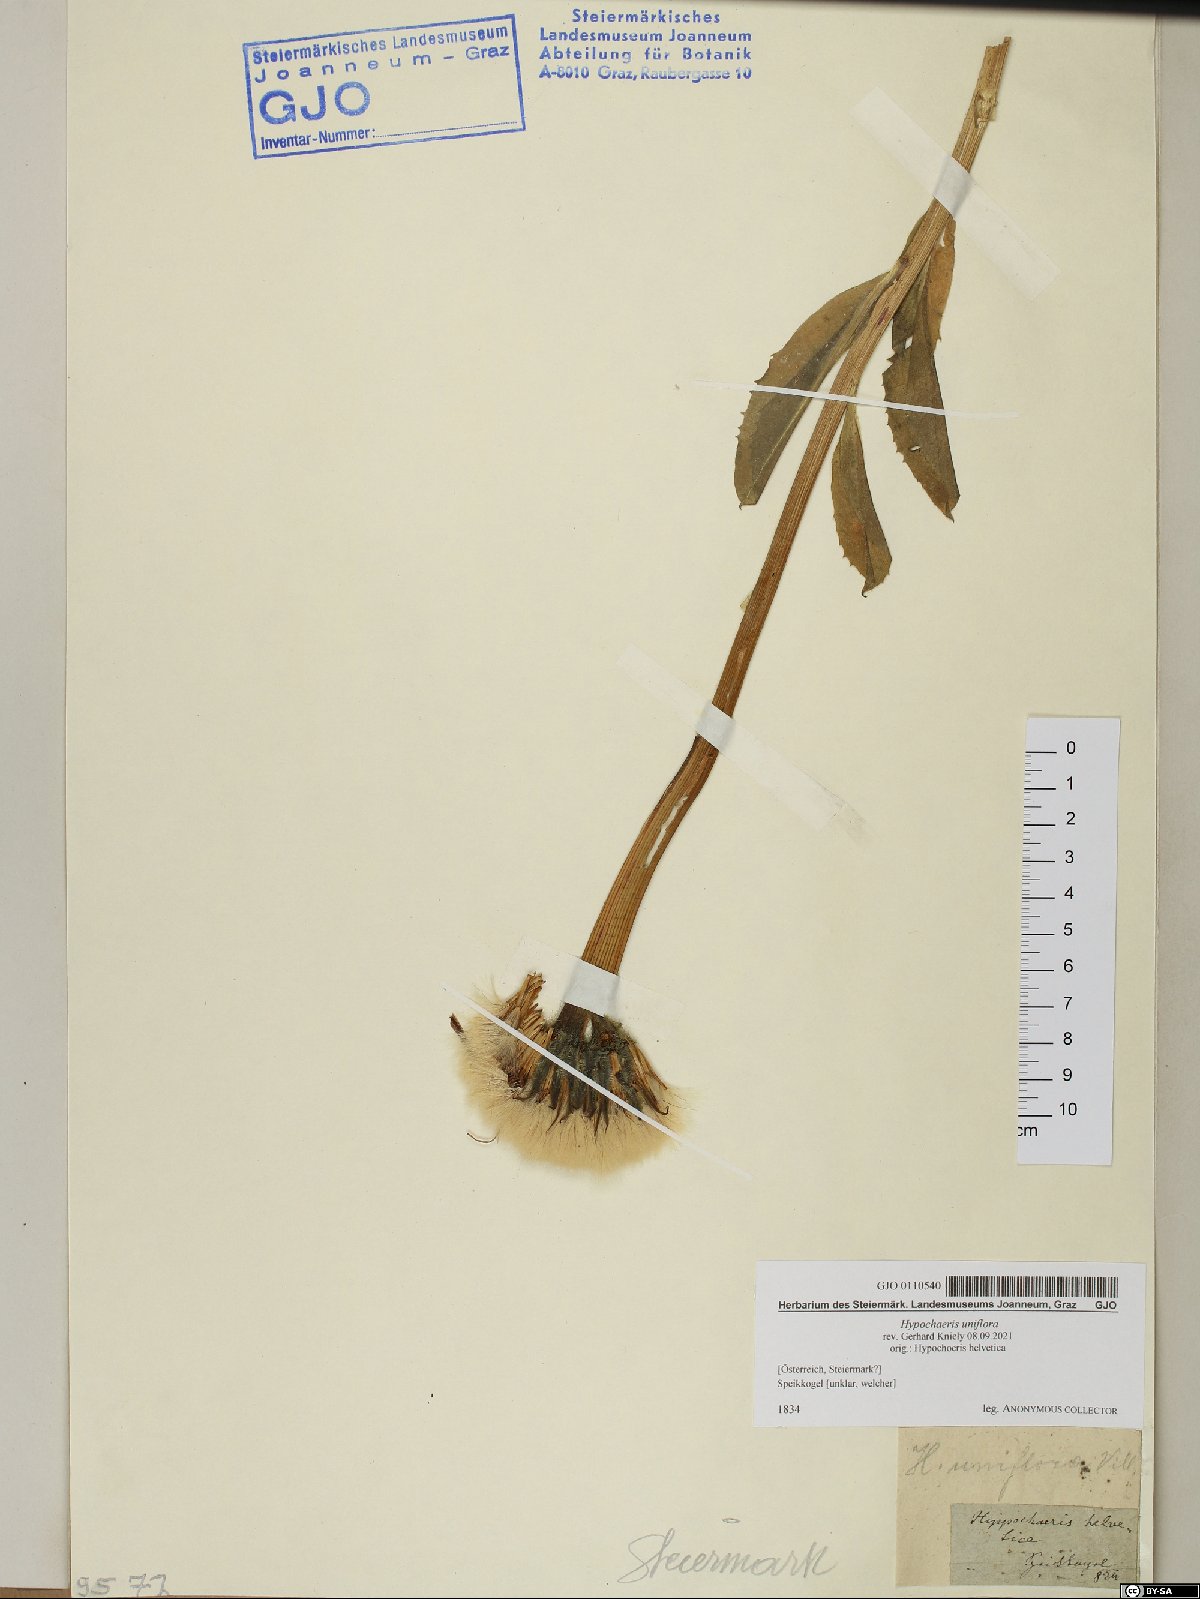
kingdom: Plantae
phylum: Tracheophyta
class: Magnoliopsida
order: Asterales
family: Asteraceae
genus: Trommsdorffia
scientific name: Trommsdorffia uniflora
